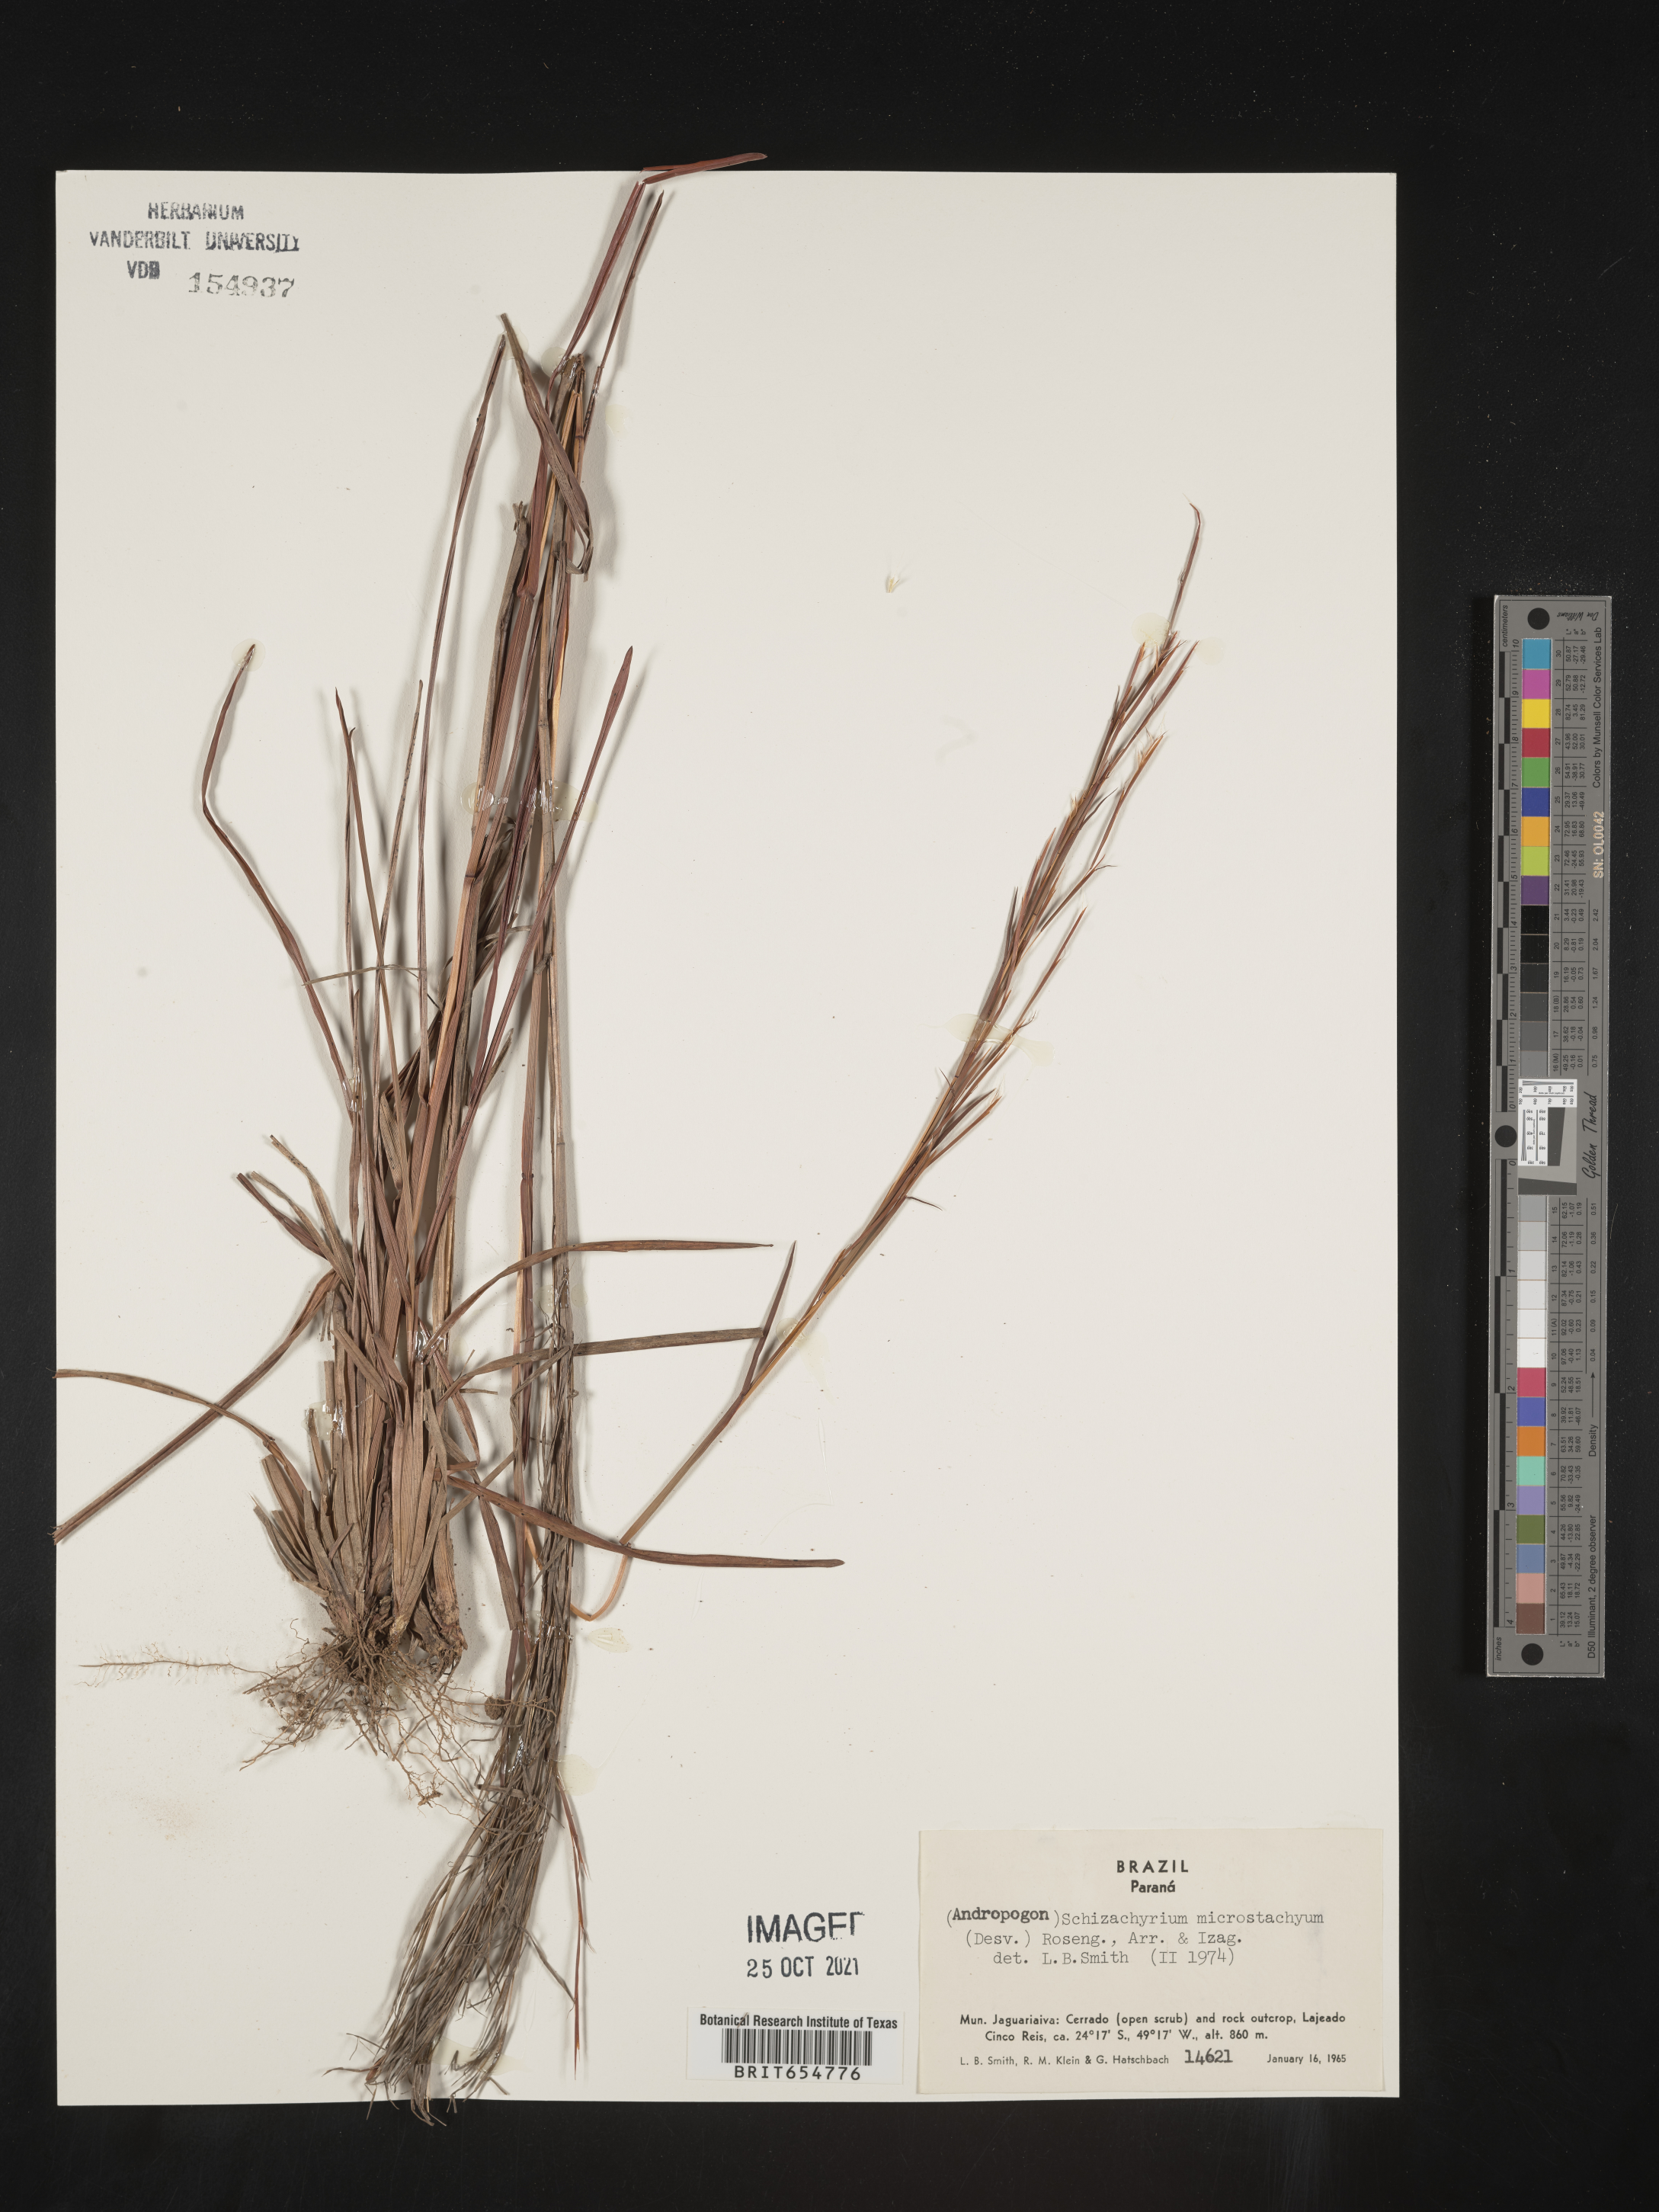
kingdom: Plantae
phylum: Tracheophyta
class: Liliopsida
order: Poales
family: Poaceae
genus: Andropogon
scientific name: Andropogon
